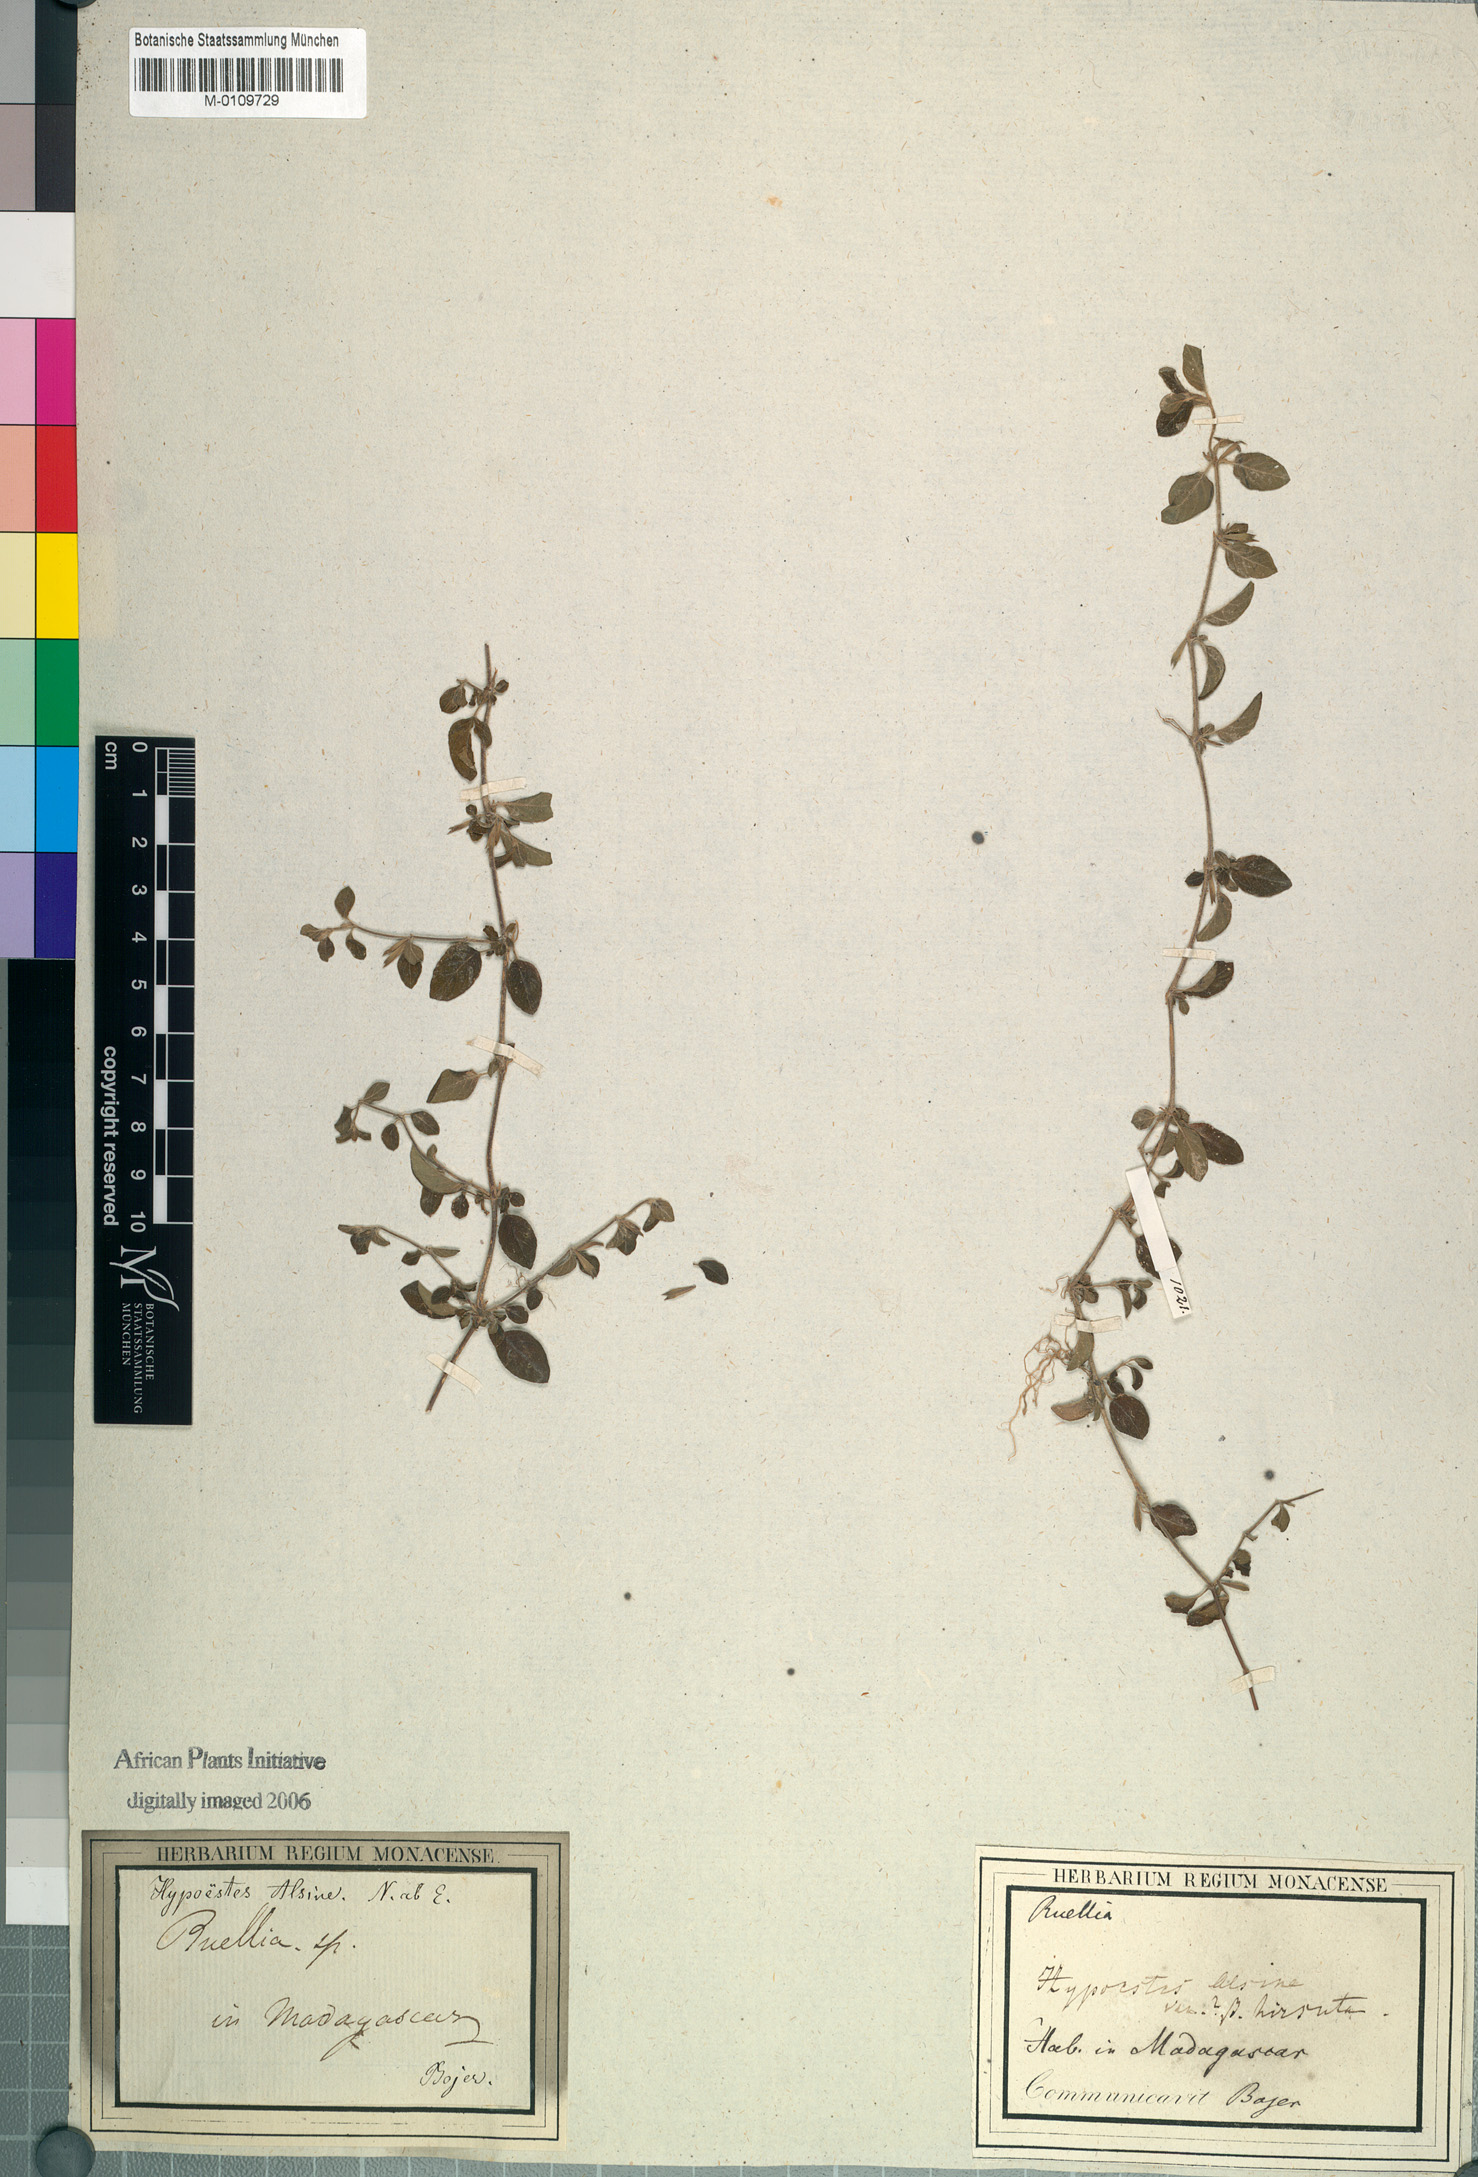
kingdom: Plantae
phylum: Tracheophyta
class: Magnoliopsida
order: Lamiales
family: Acanthaceae
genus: Hypoestes
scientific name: Hypoestes serpens
